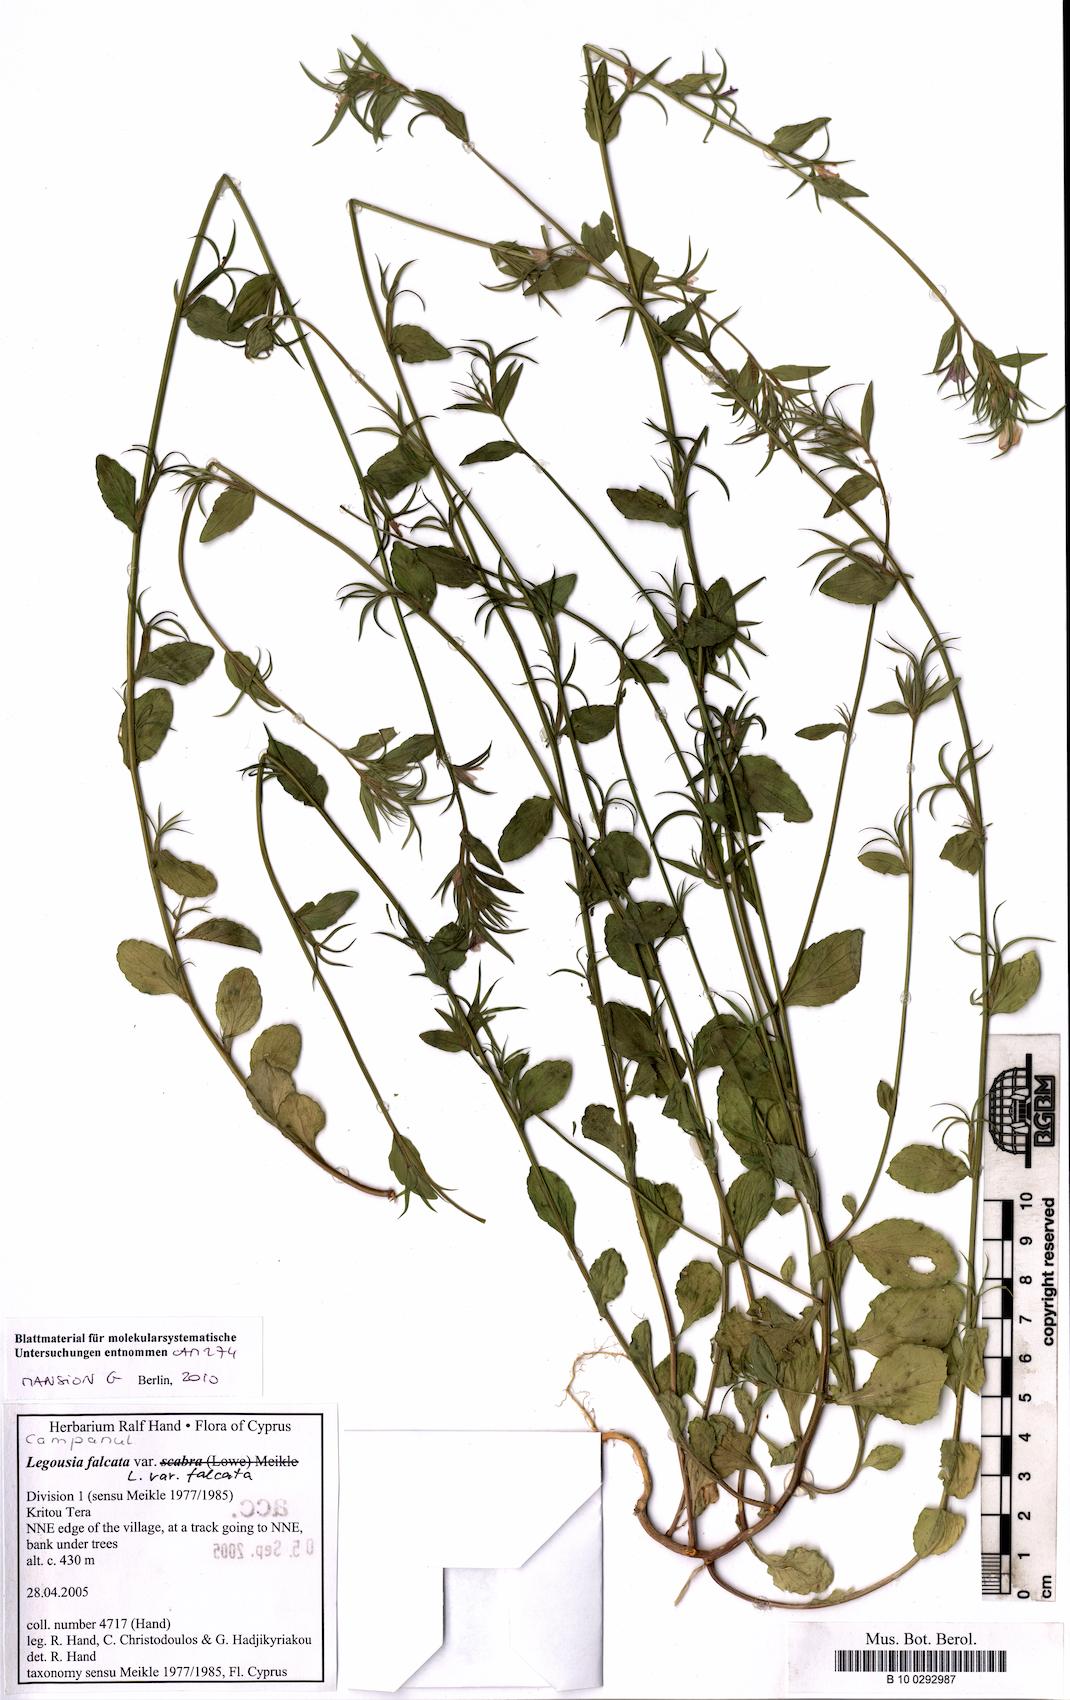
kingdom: Plantae
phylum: Tracheophyta
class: Magnoliopsida
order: Asterales
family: Campanulaceae
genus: Legousia
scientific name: Legousia falcata
